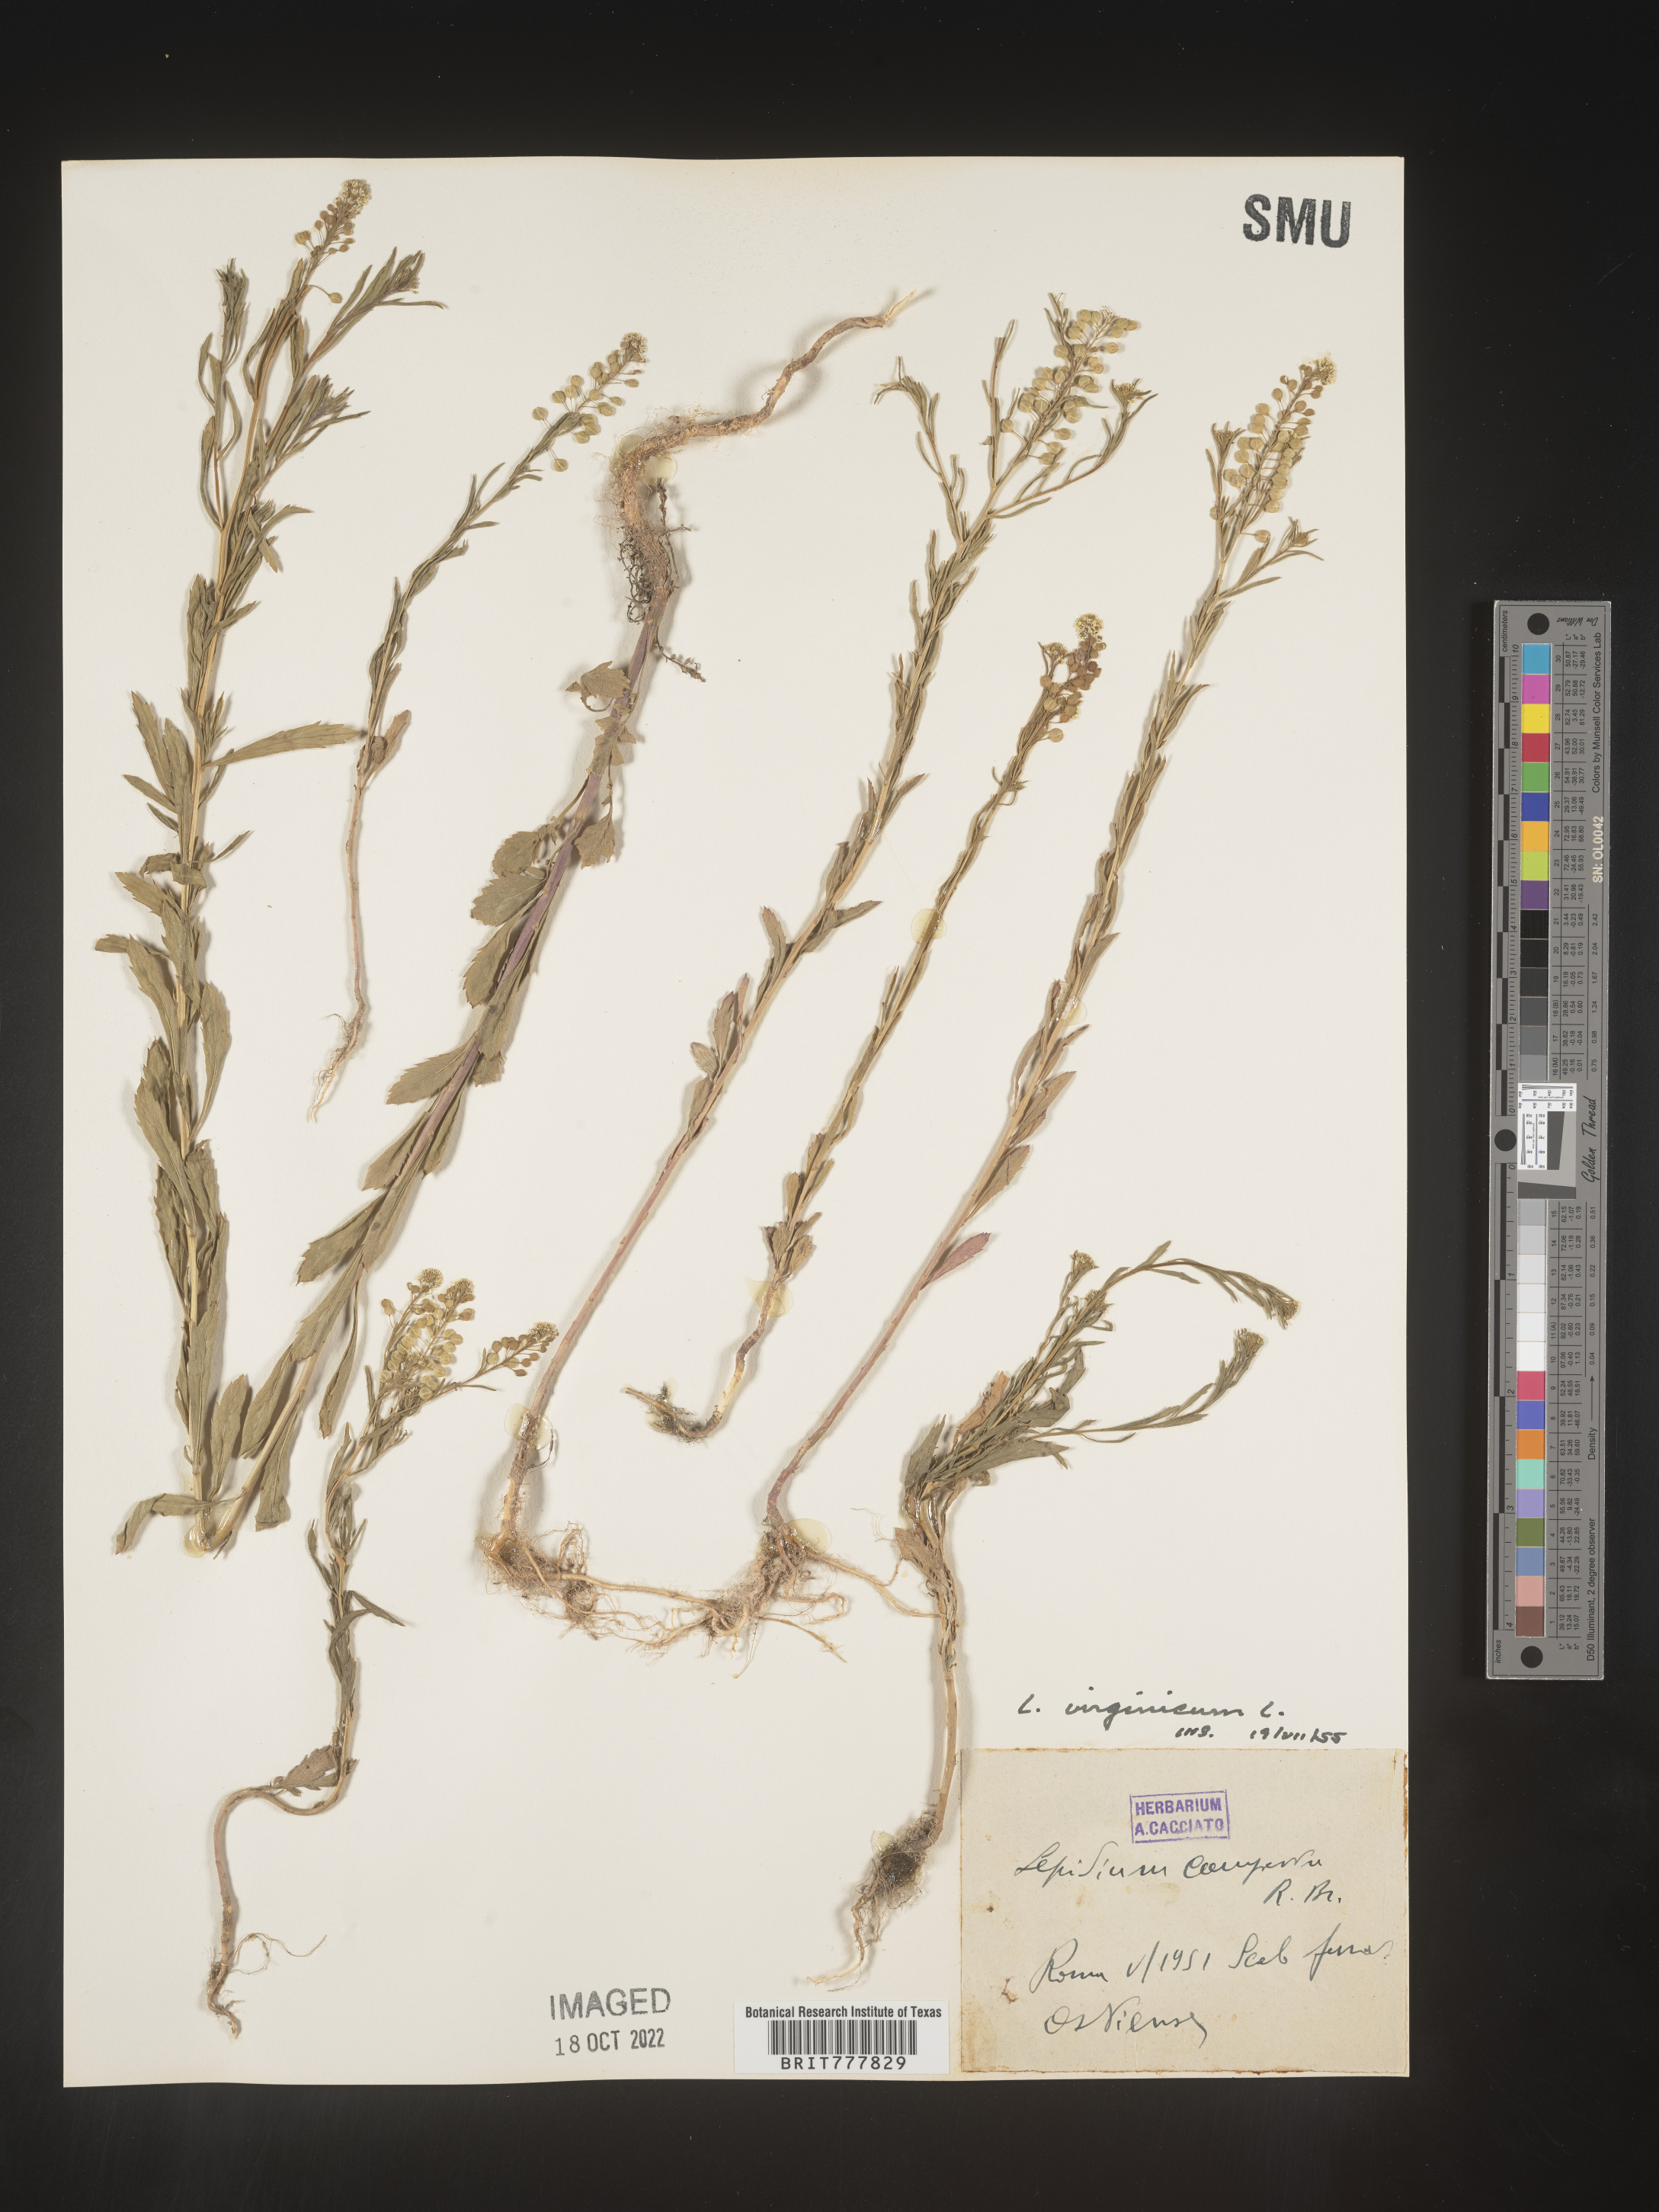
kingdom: Plantae
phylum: Tracheophyta
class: Magnoliopsida
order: Brassicales
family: Brassicaceae
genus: Lepidium
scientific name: Lepidium
